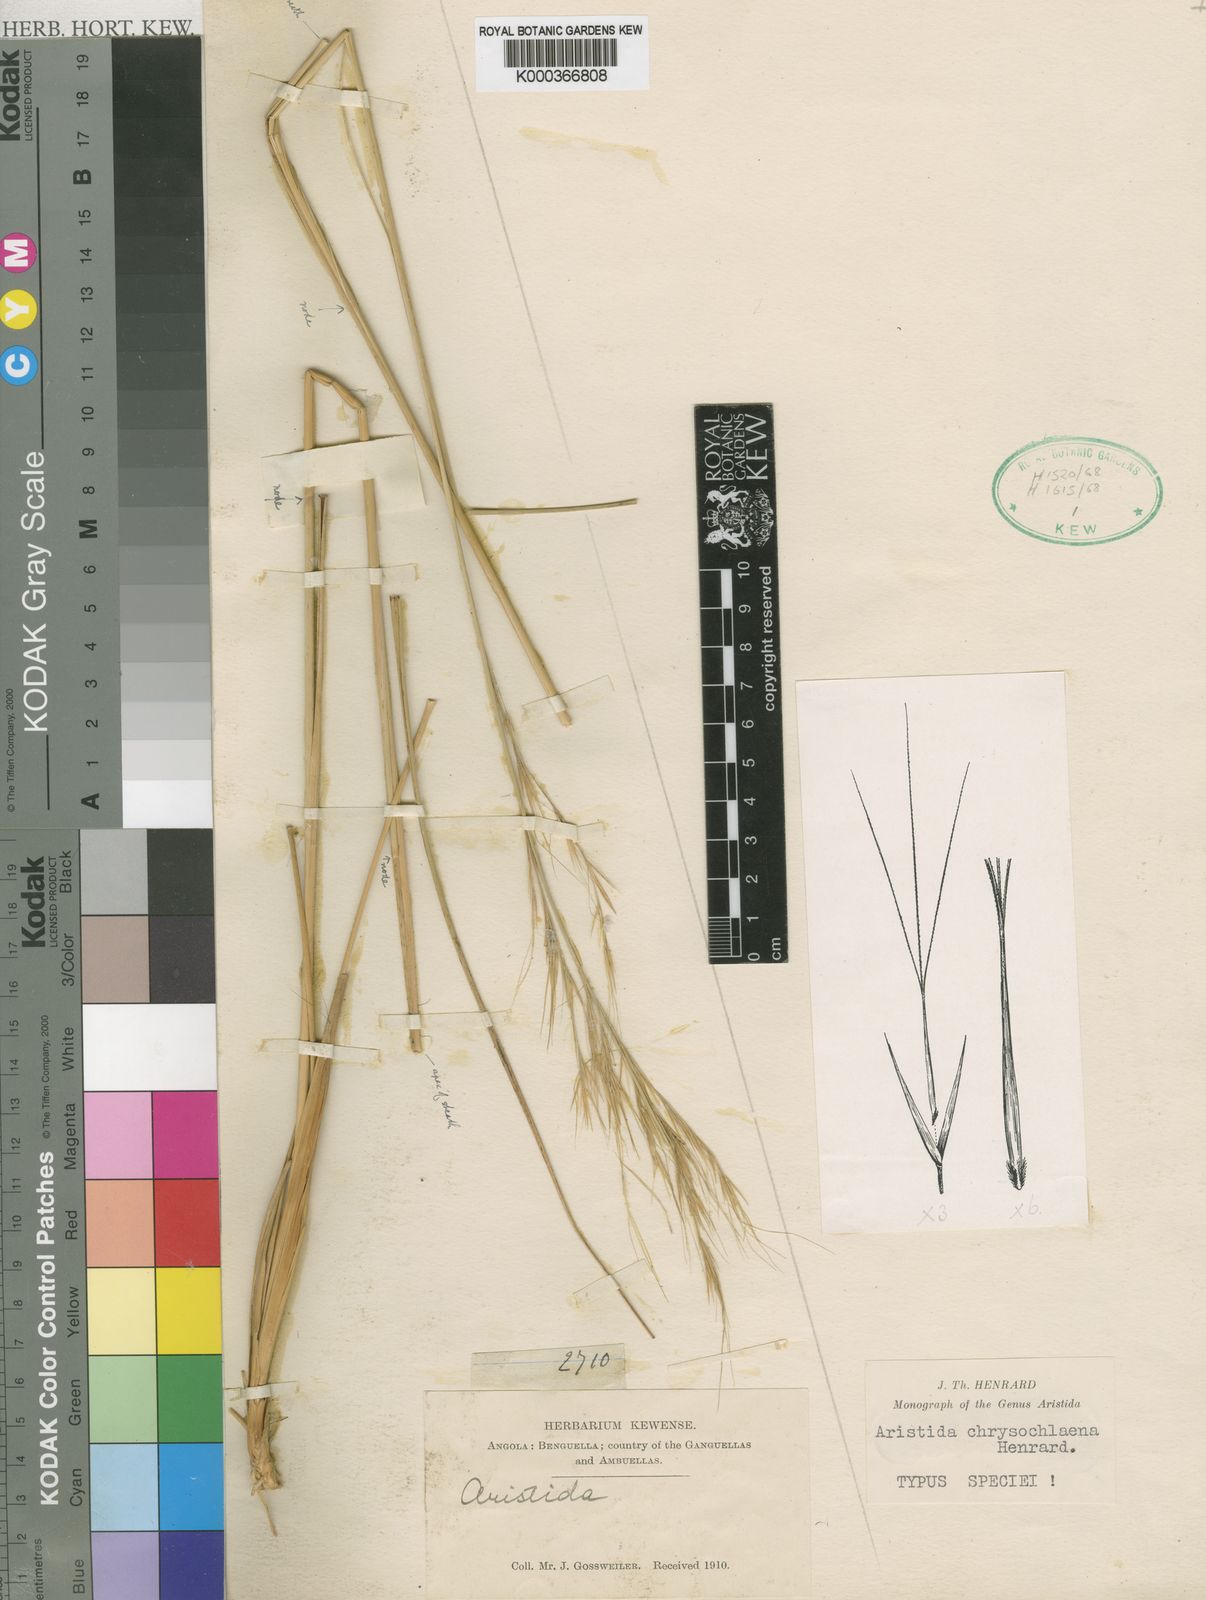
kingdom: Plantae
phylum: Tracheophyta
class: Liliopsida
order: Poales
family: Poaceae
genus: Aristida
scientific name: Aristida nemorivaga
